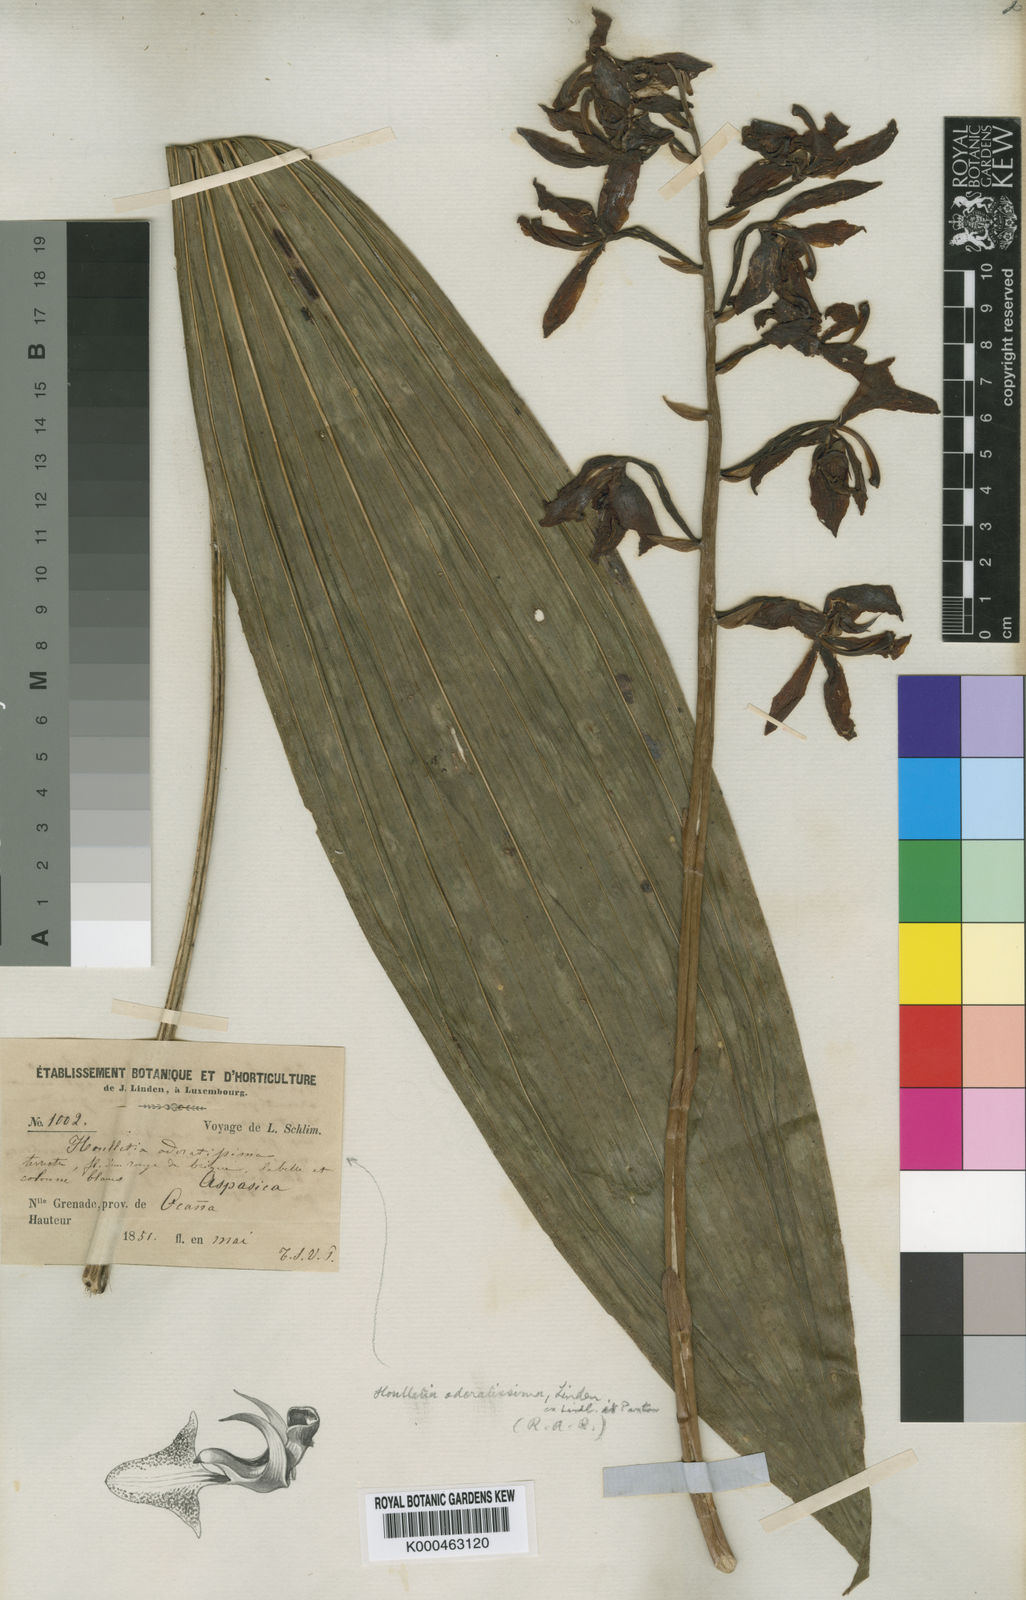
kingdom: Plantae
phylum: Tracheophyta
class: Liliopsida
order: Asparagales
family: Orchidaceae
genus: Houlletia
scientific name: Houlletia odoratissima
